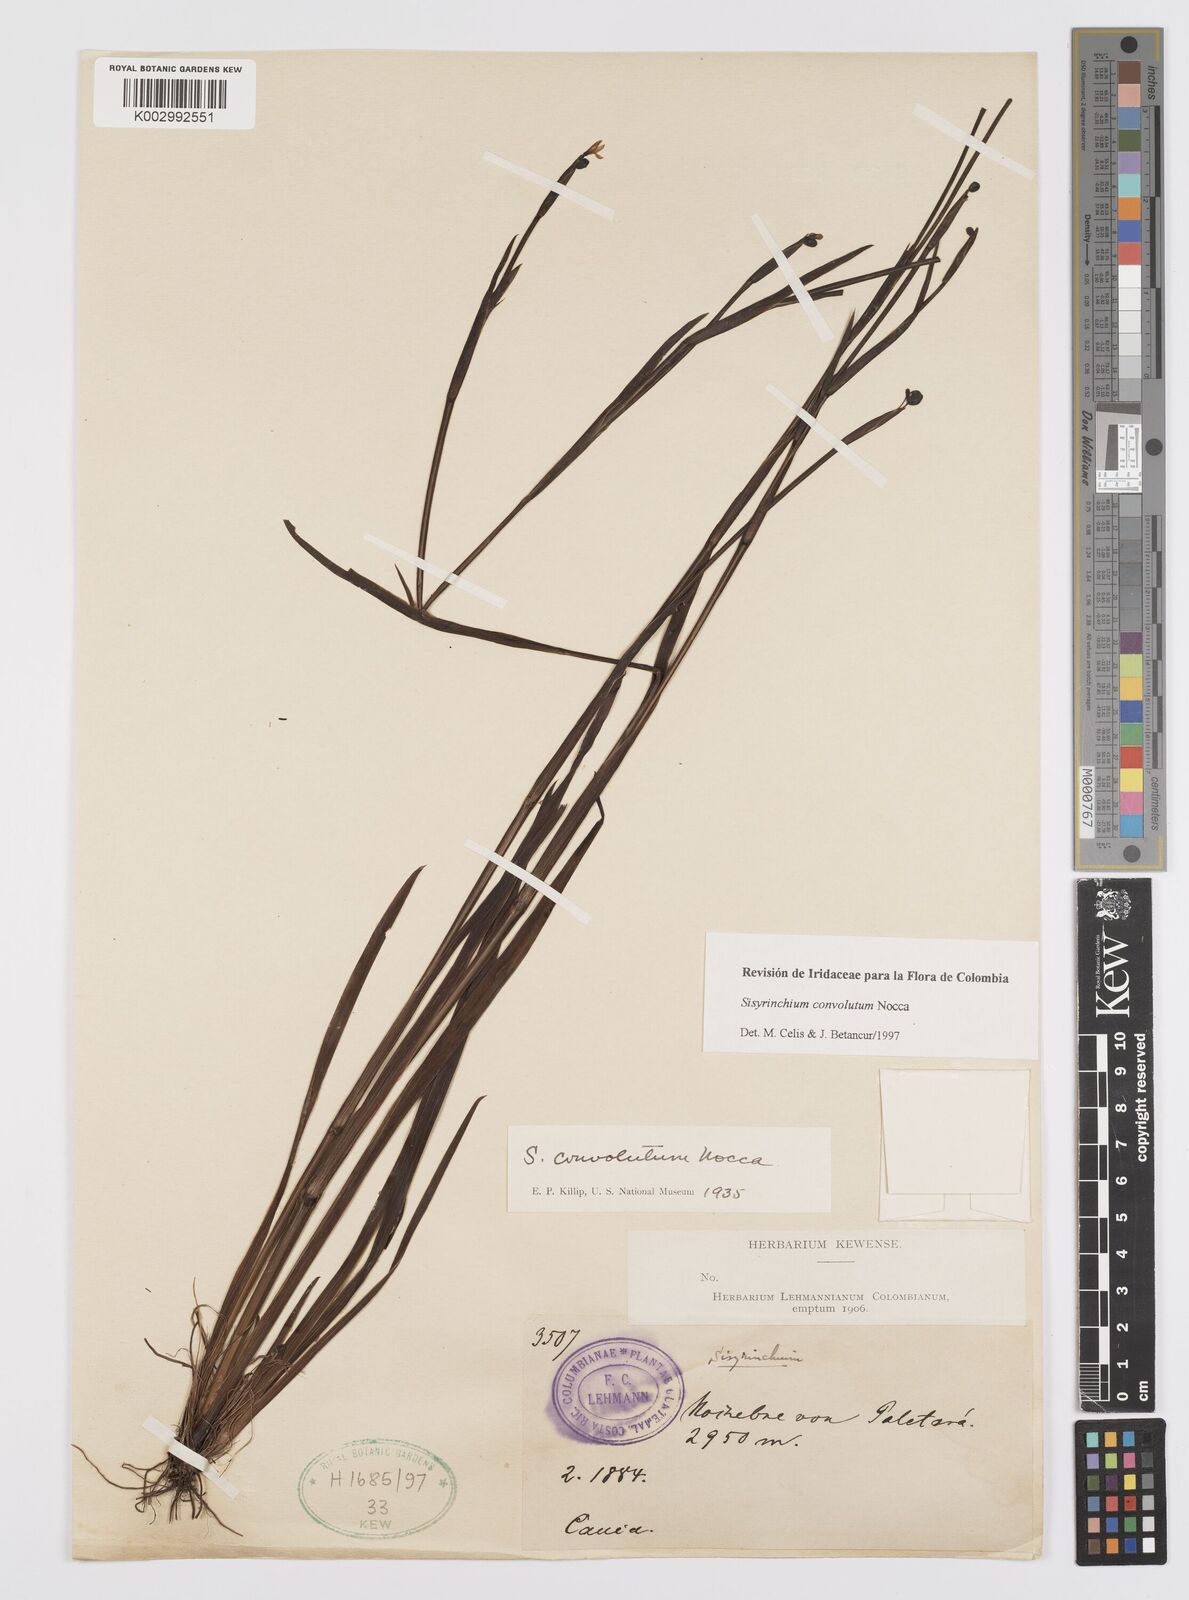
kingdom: Plantae
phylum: Tracheophyta
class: Liliopsida
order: Asparagales
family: Iridaceae
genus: Sisyrinchium
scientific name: Sisyrinchium convolutum
